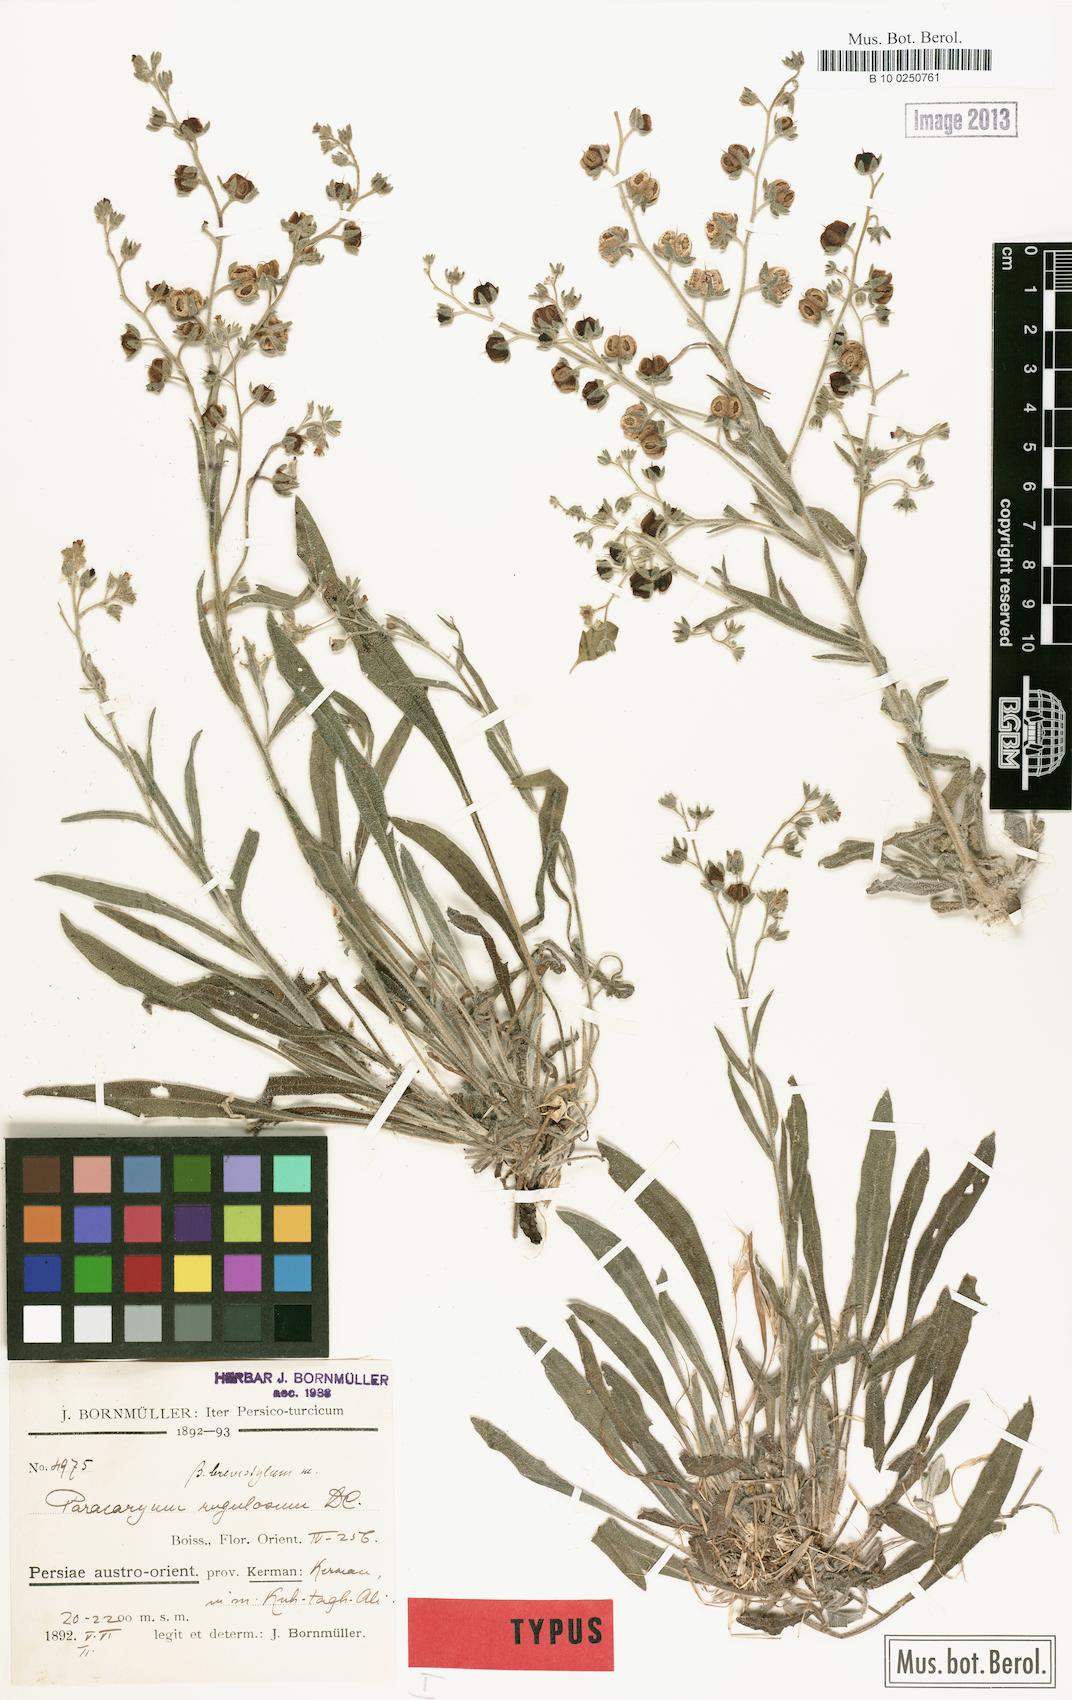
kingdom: Plantae
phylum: Tracheophyta
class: Magnoliopsida
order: Boraginales
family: Boraginaceae
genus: Paracaryum
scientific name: Paracaryum rugulosum
